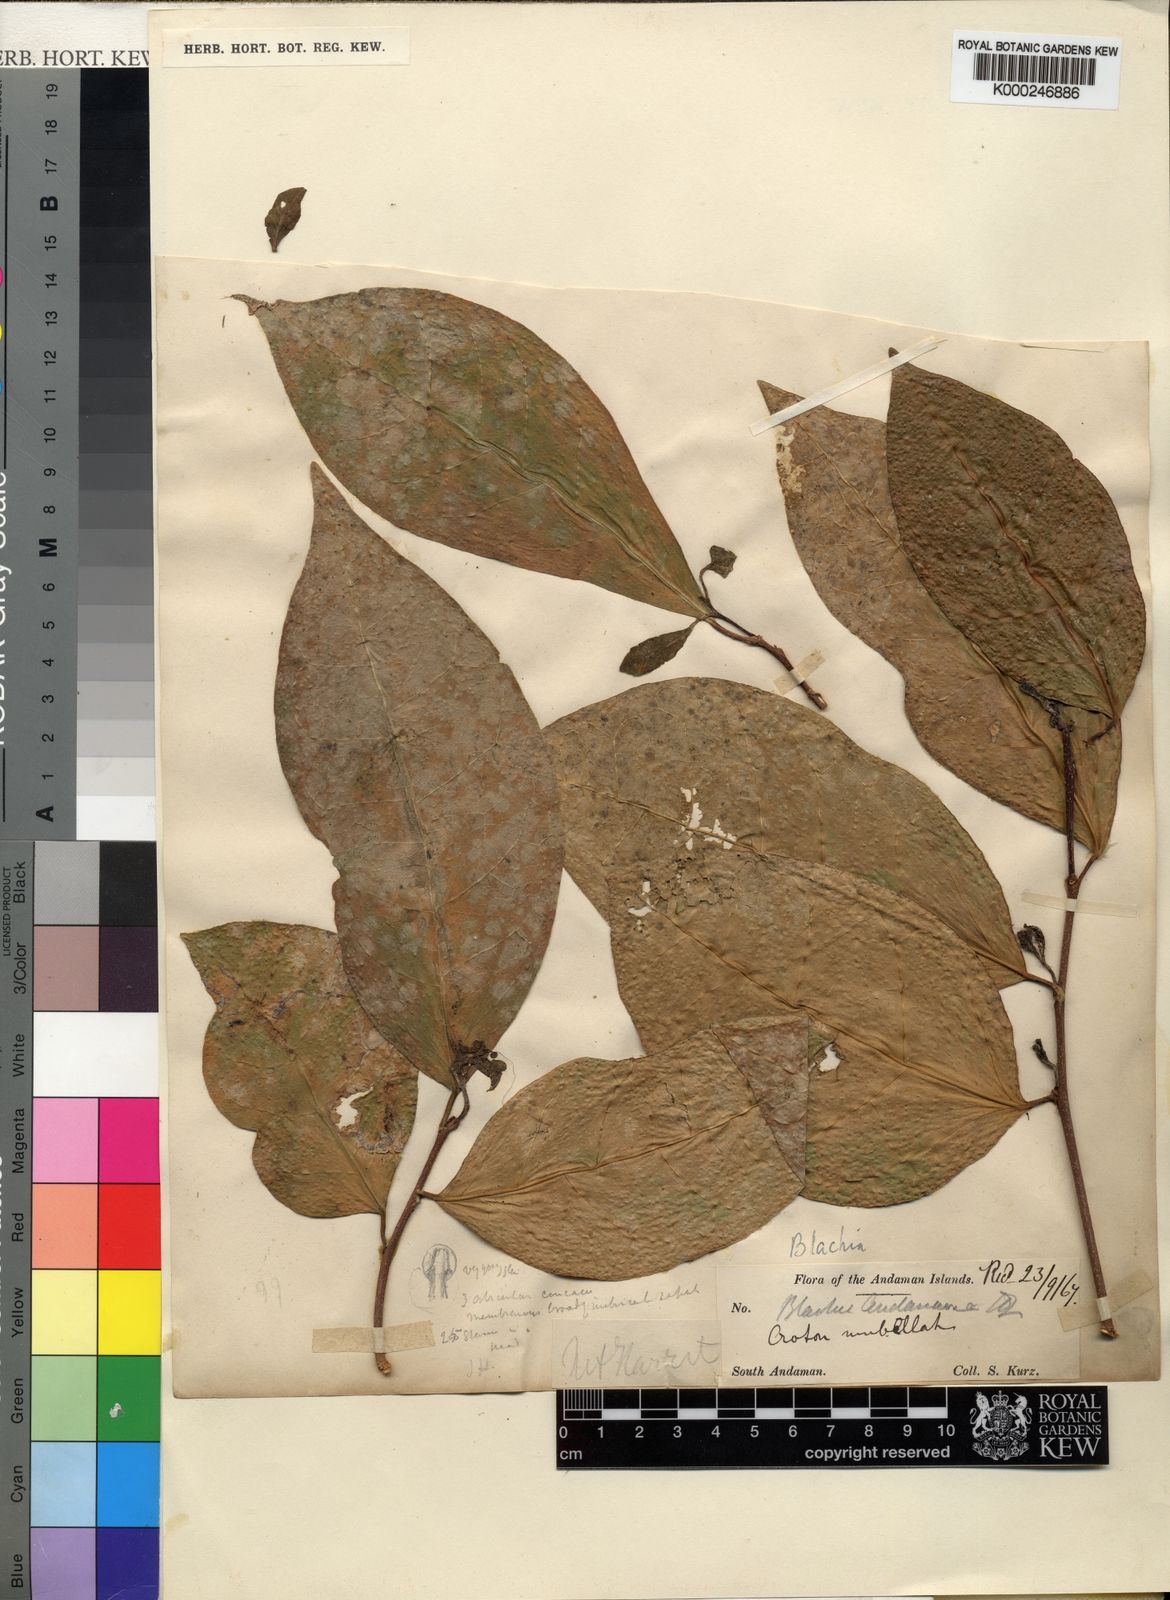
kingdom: Plantae
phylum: Tracheophyta
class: Magnoliopsida
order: Malpighiales
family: Euphorbiaceae
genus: Blachia
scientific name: Blachia andamanica
